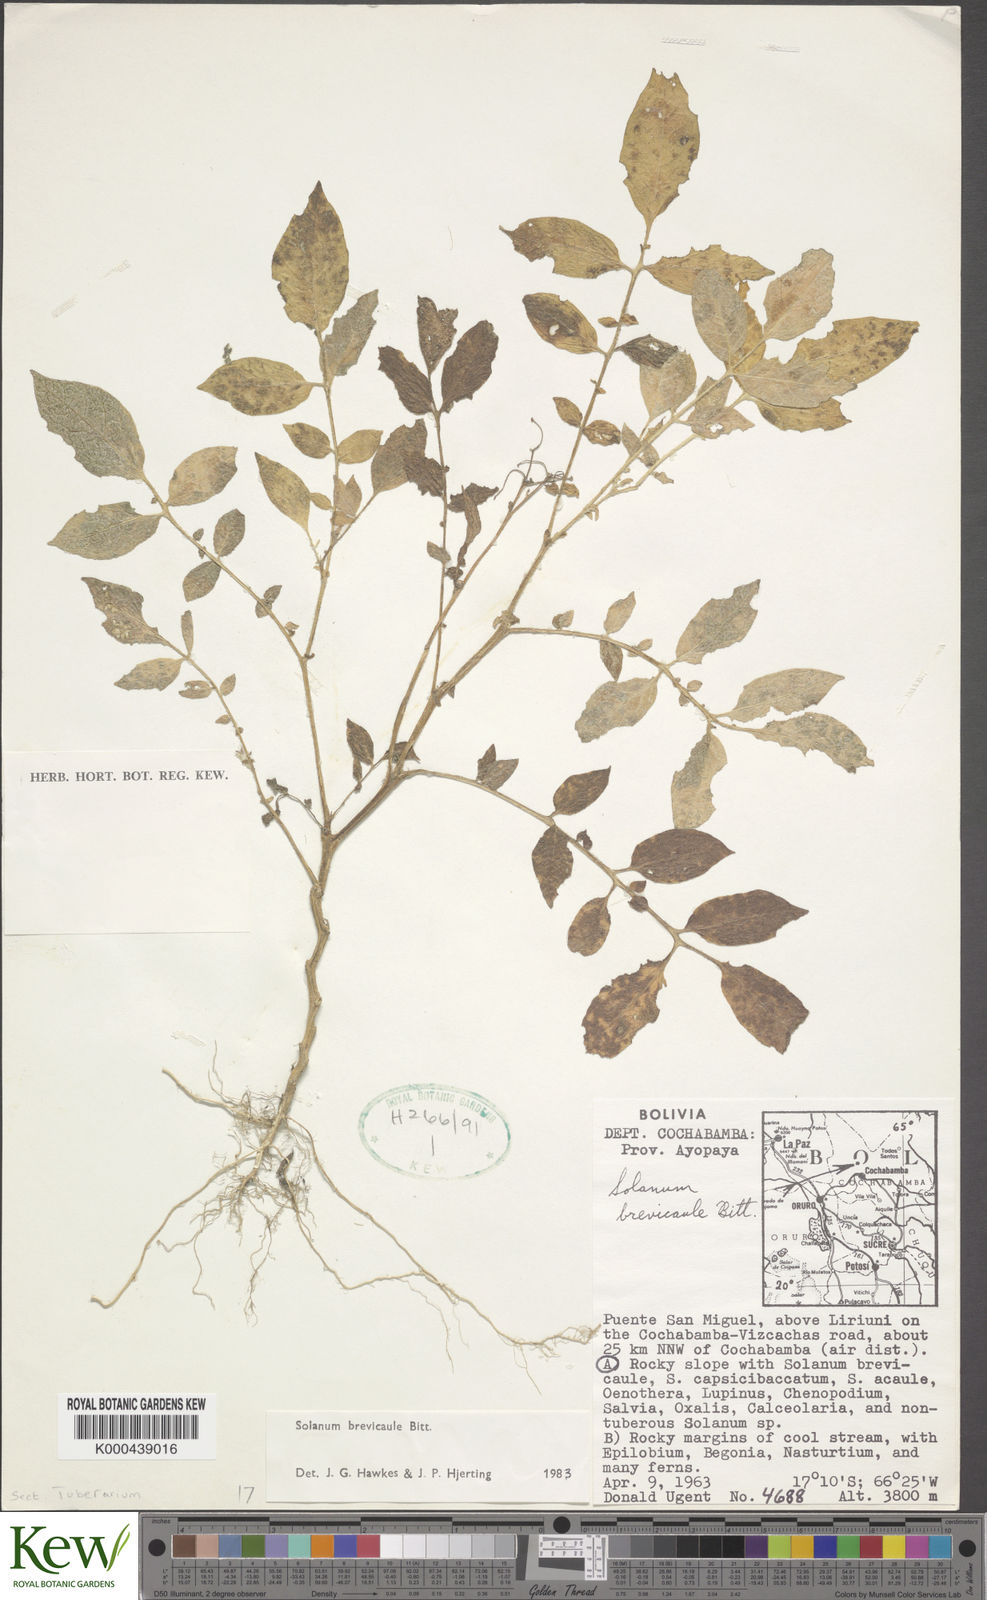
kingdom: Plantae
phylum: Tracheophyta
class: Magnoliopsida
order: Solanales
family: Solanaceae
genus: Solanum
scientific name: Solanum brevicaule
